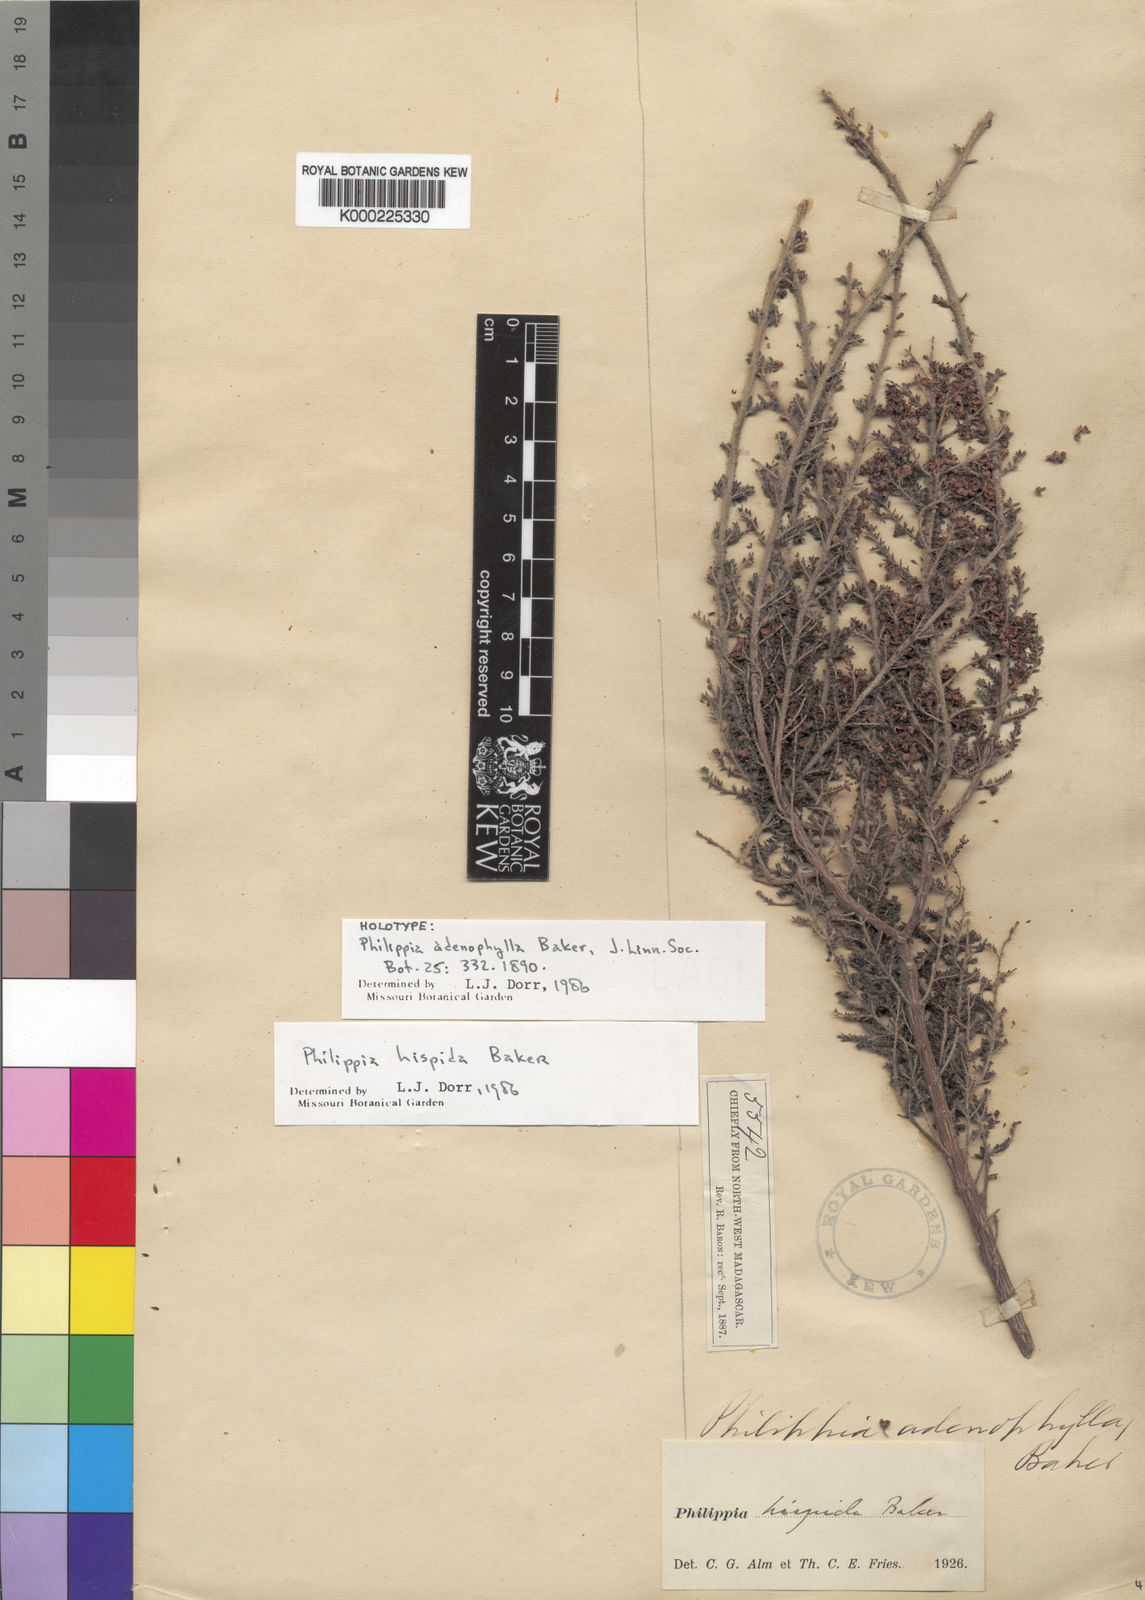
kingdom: Plantae
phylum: Tracheophyta
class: Magnoliopsida
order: Ericales
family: Ericaceae
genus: Erica
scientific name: Erica perhispida
